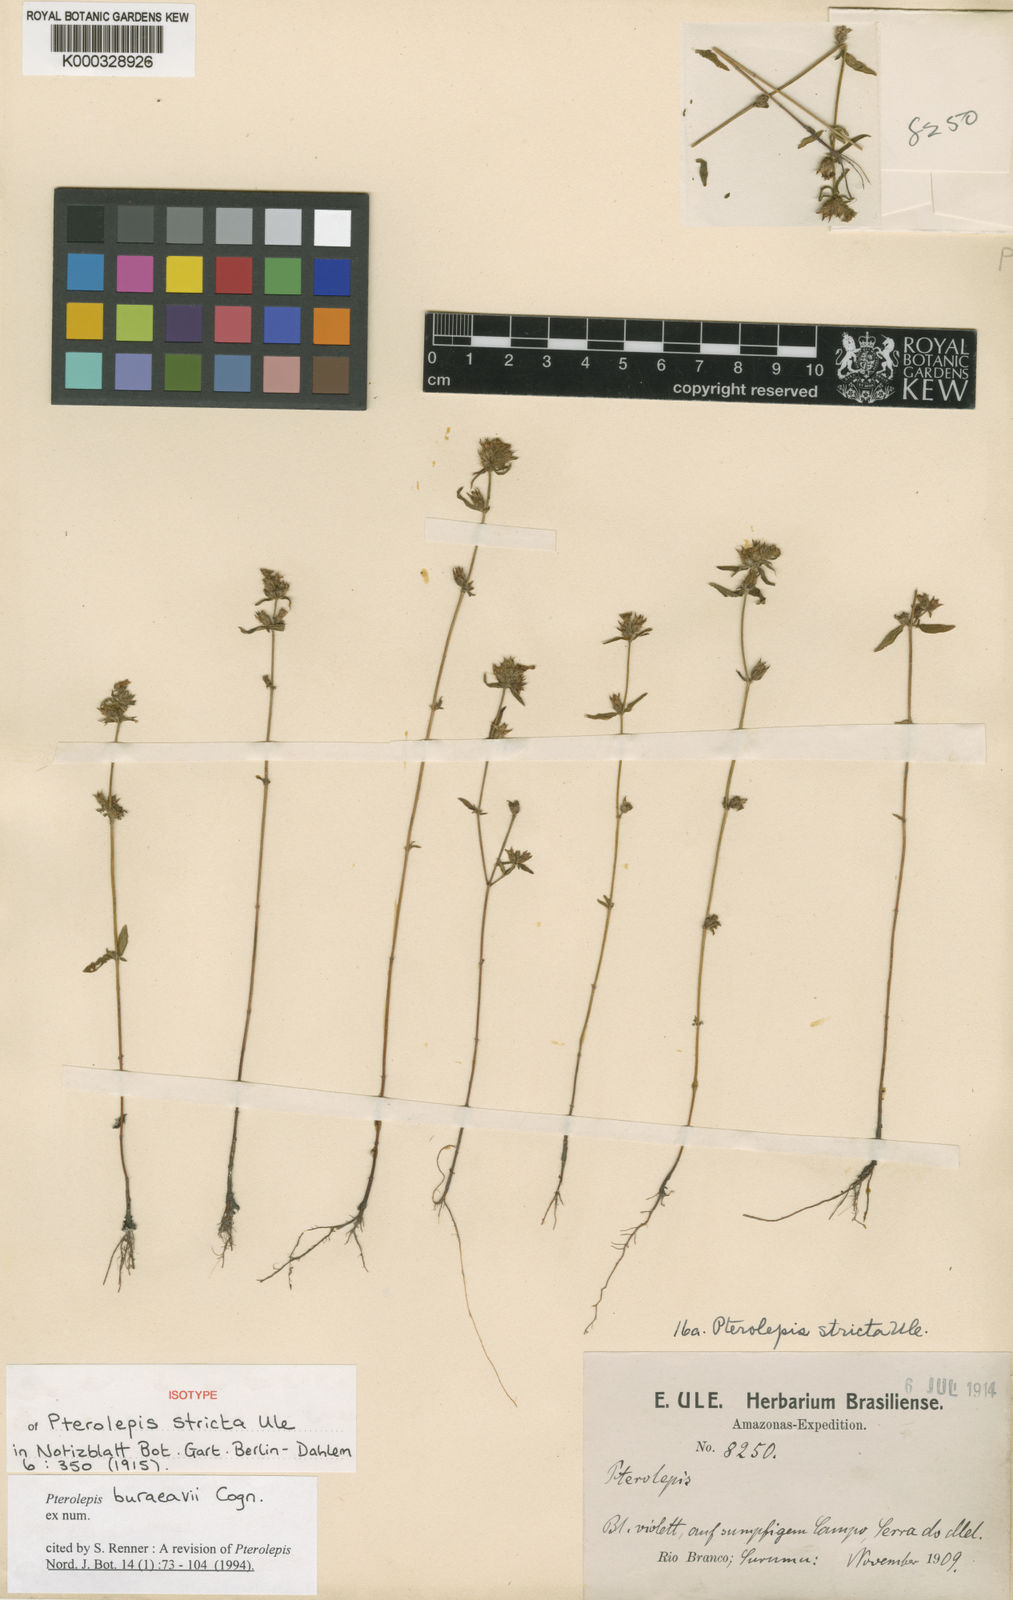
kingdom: Plantae
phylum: Tracheophyta
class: Magnoliopsida
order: Myrtales
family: Melastomataceae
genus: Pterolepis
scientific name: Pterolepis buraeavi
